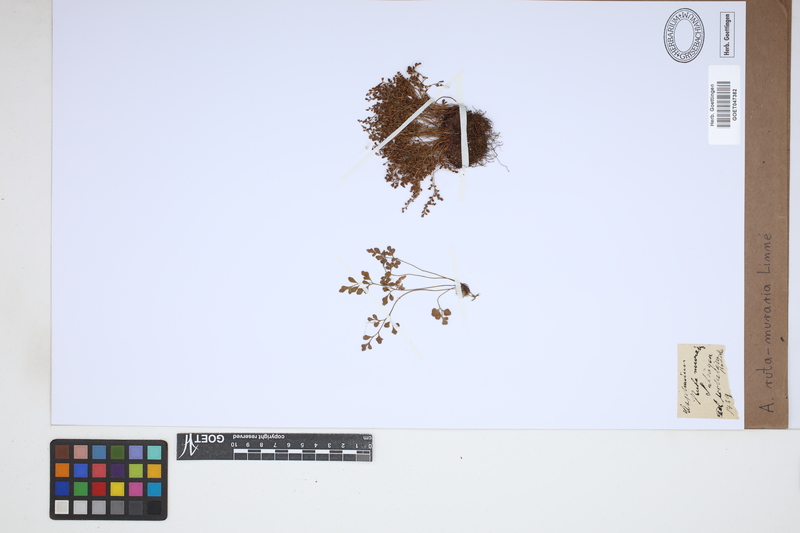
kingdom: Plantae
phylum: Tracheophyta
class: Polypodiopsida
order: Polypodiales
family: Aspleniaceae
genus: Asplenium
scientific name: Asplenium ruta-muraria
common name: Wall-rue
